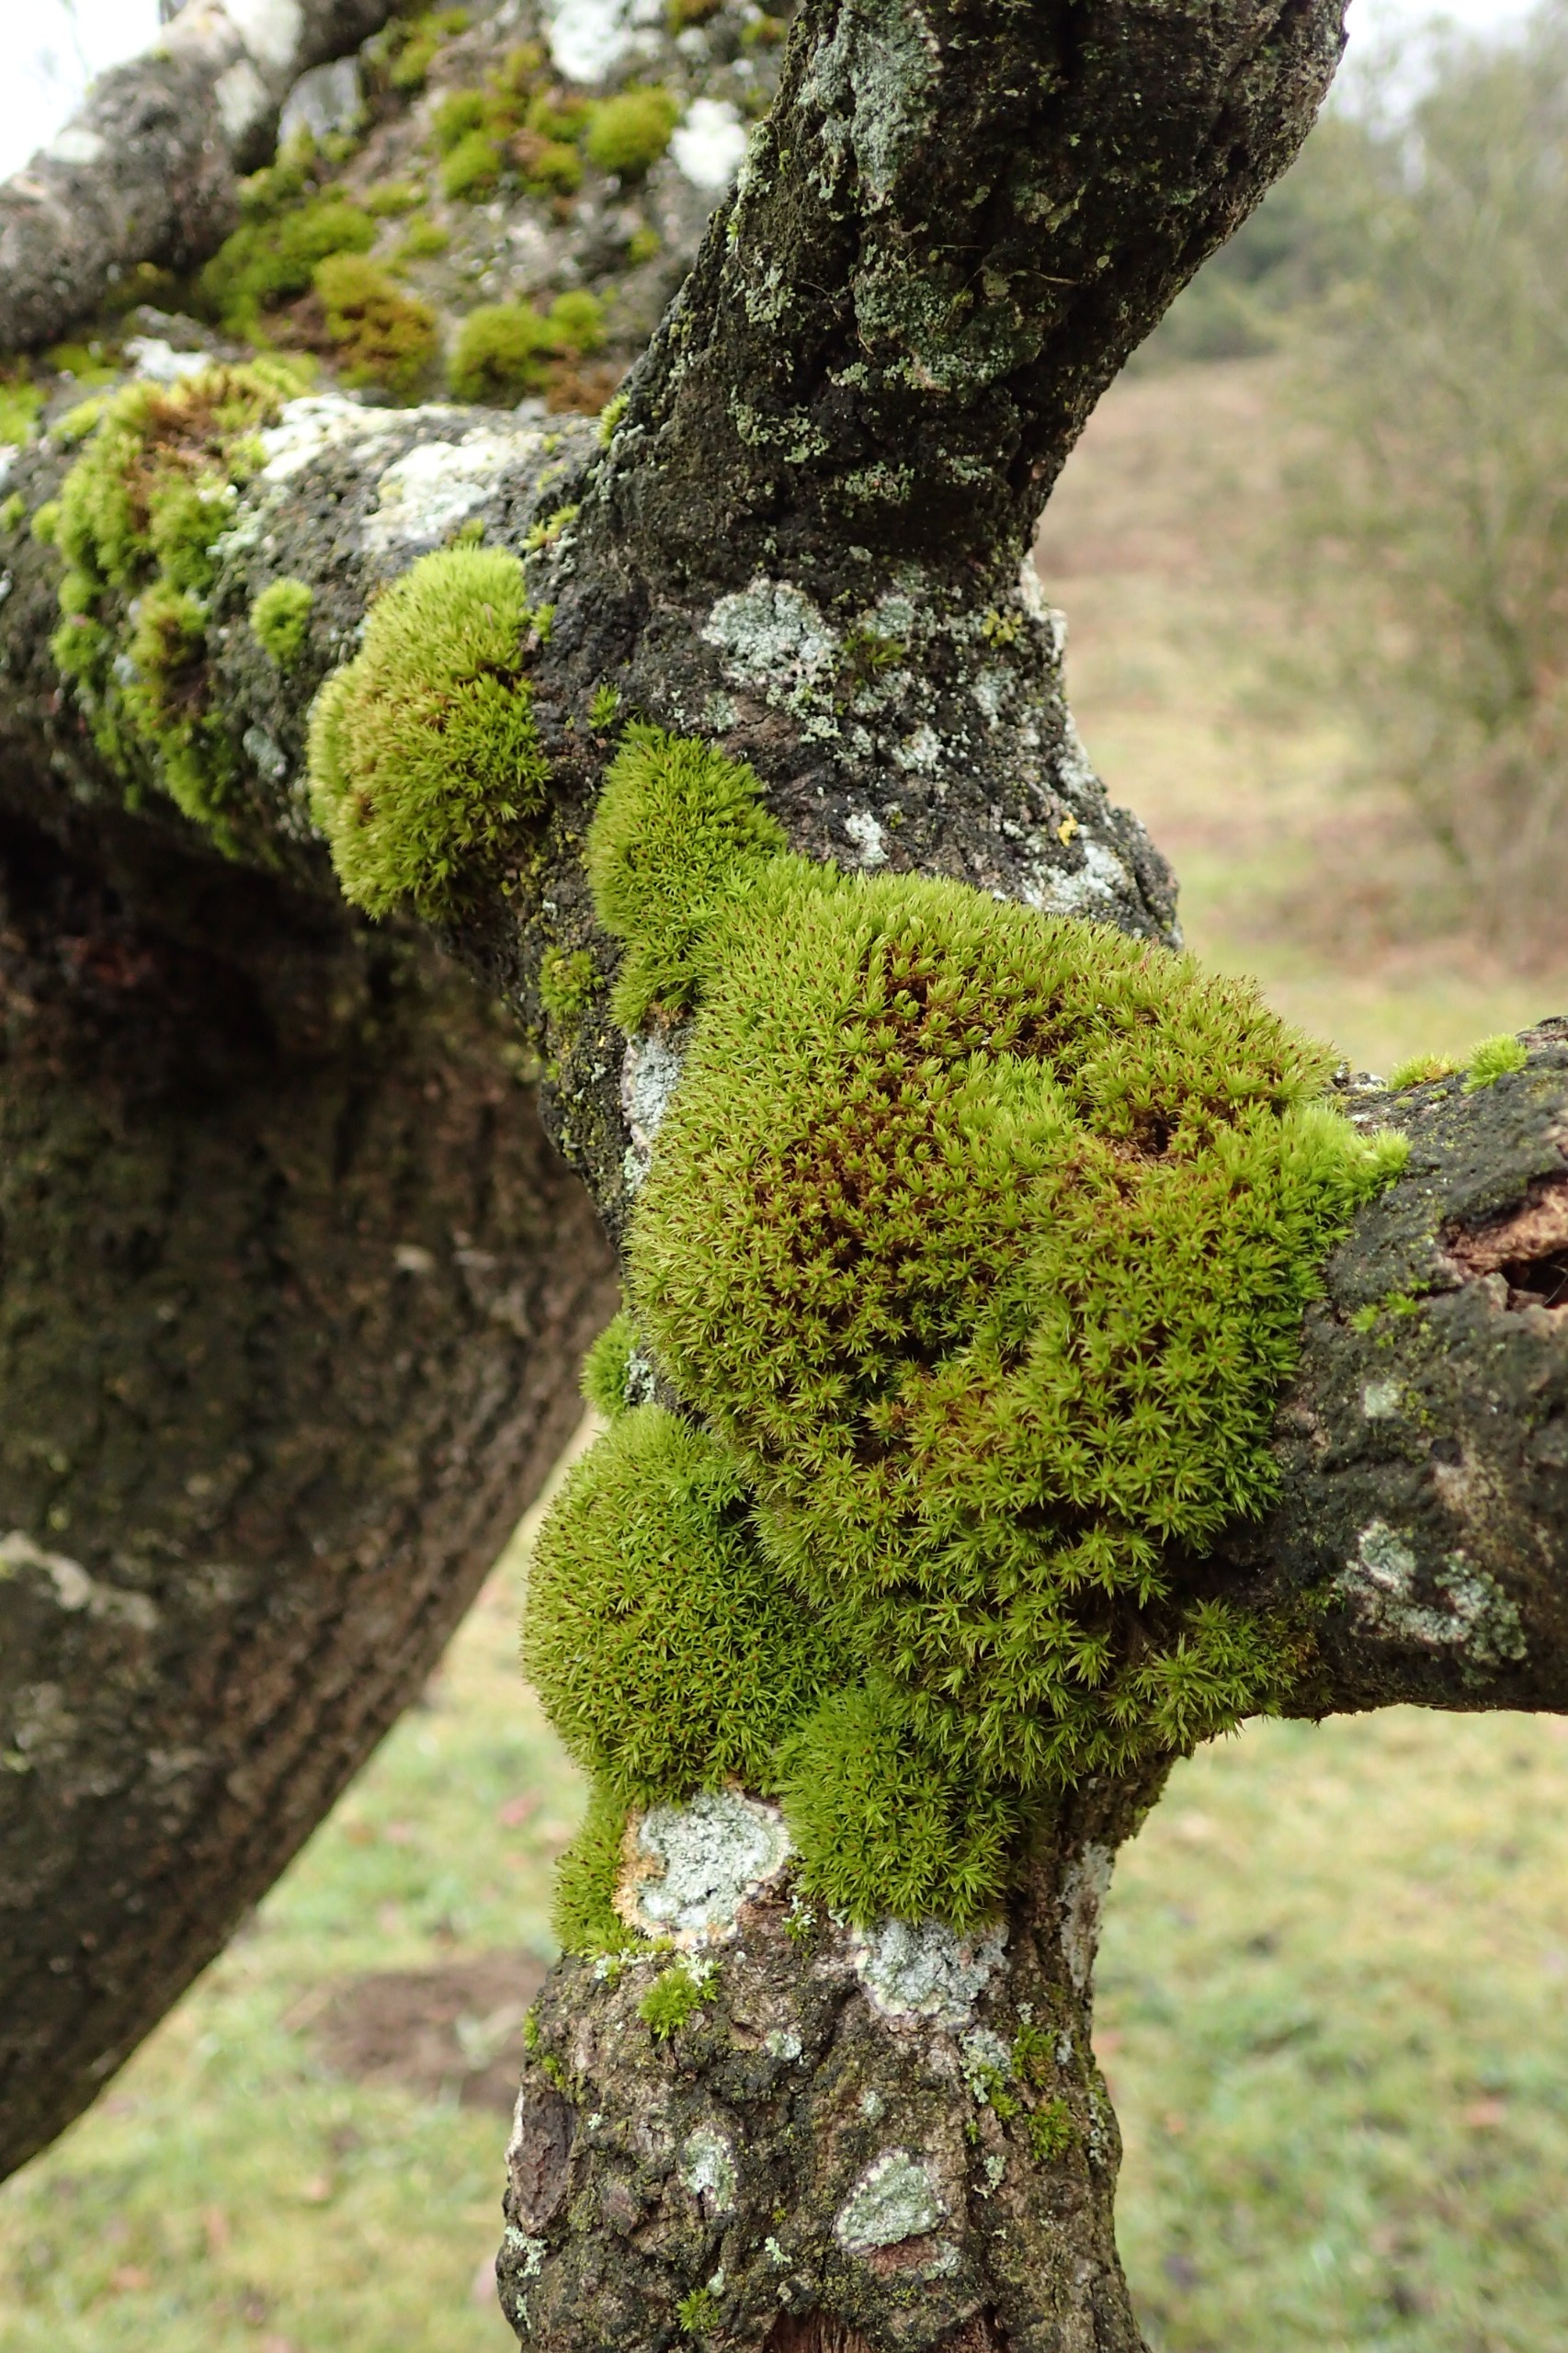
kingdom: Plantae
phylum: Bryophyta
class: Bryopsida
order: Orthotrichales
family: Orthotrichaceae
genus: Plenogemma
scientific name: Plenogemma phyllantha
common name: Stor låddenhætte
